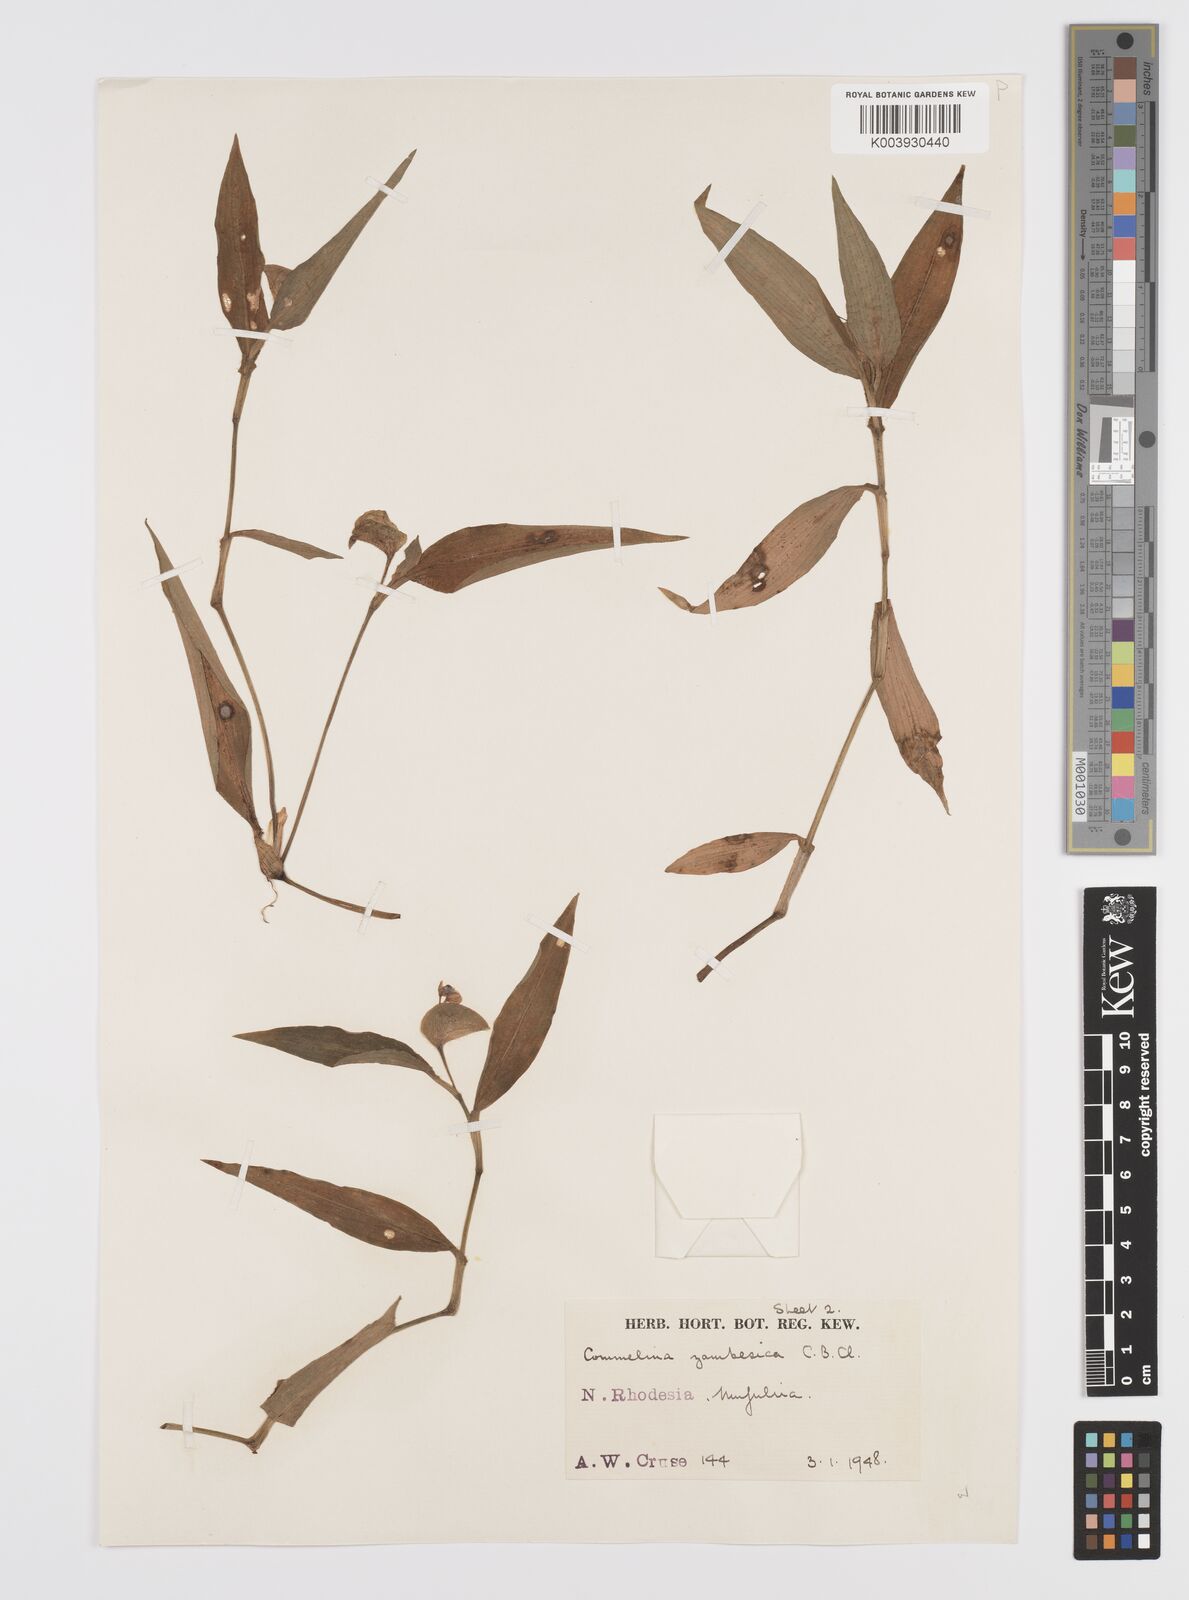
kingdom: Plantae
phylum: Tracheophyta
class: Liliopsida
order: Commelinales
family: Commelinaceae
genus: Commelina
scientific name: Commelina zambesica
